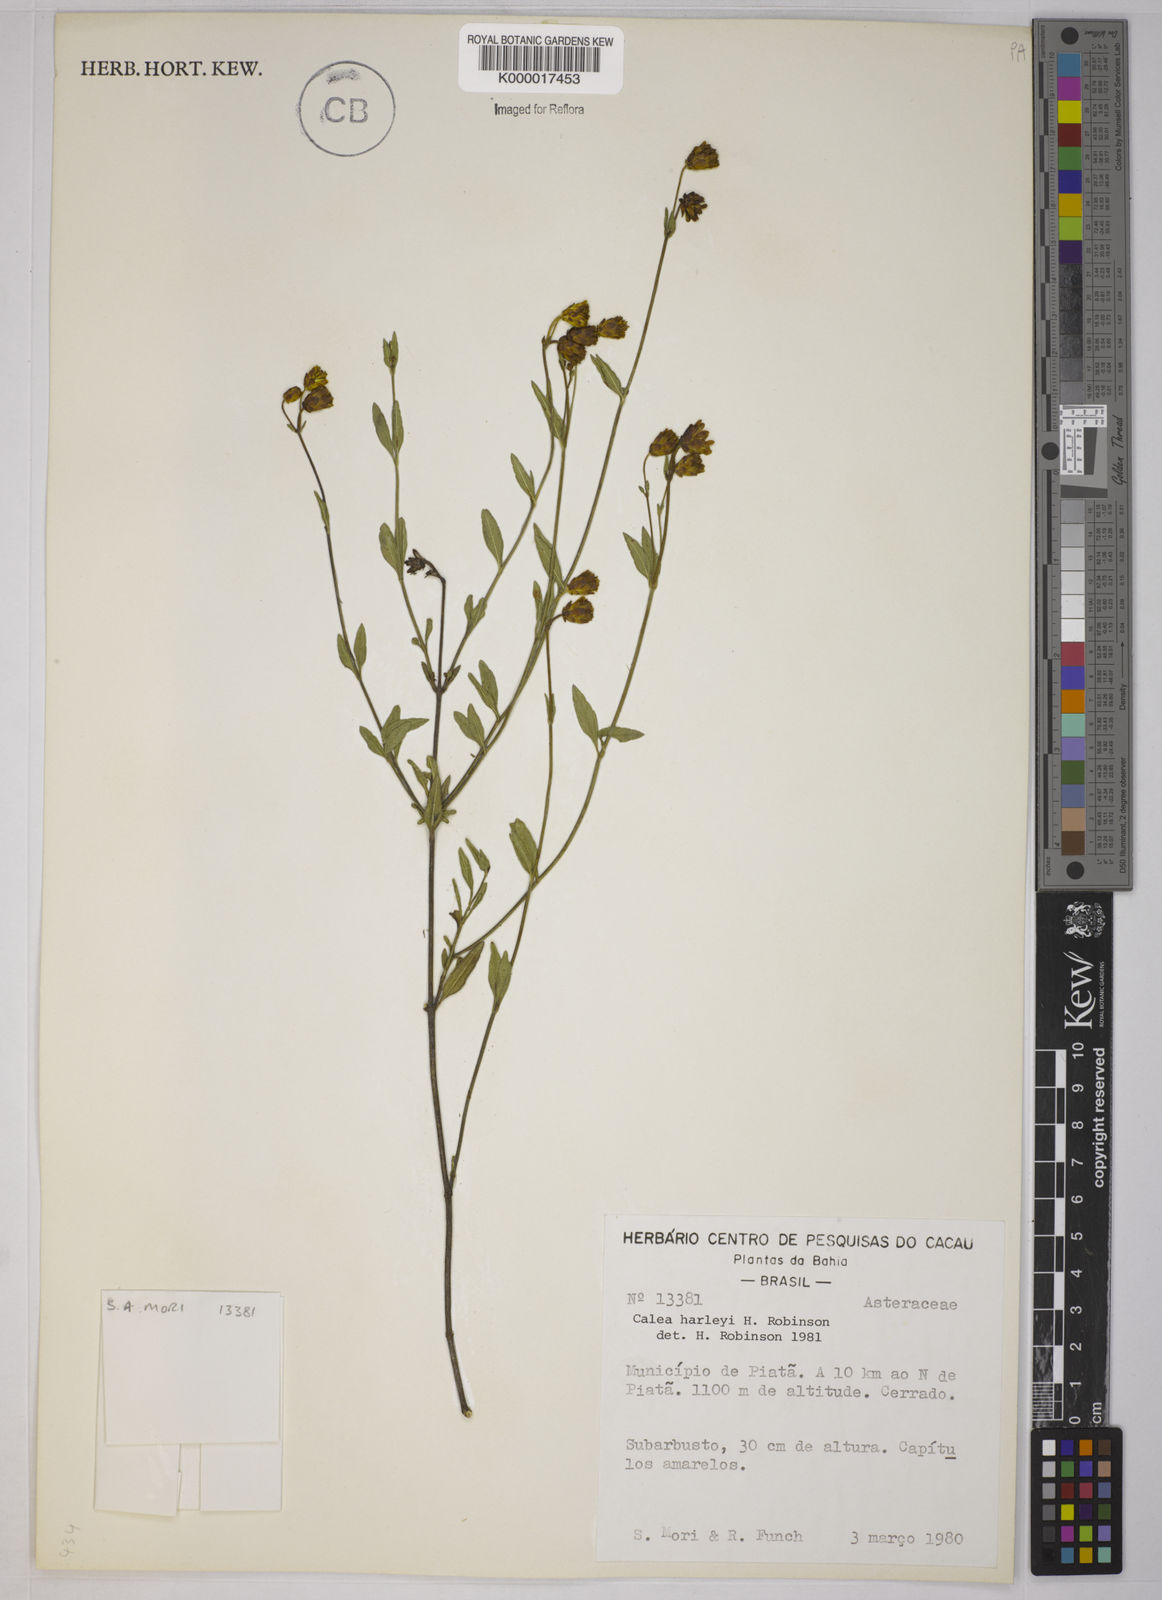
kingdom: Plantae
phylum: Tracheophyta
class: Magnoliopsida
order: Asterales
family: Asteraceae
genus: Calea
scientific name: Calea harleyi
